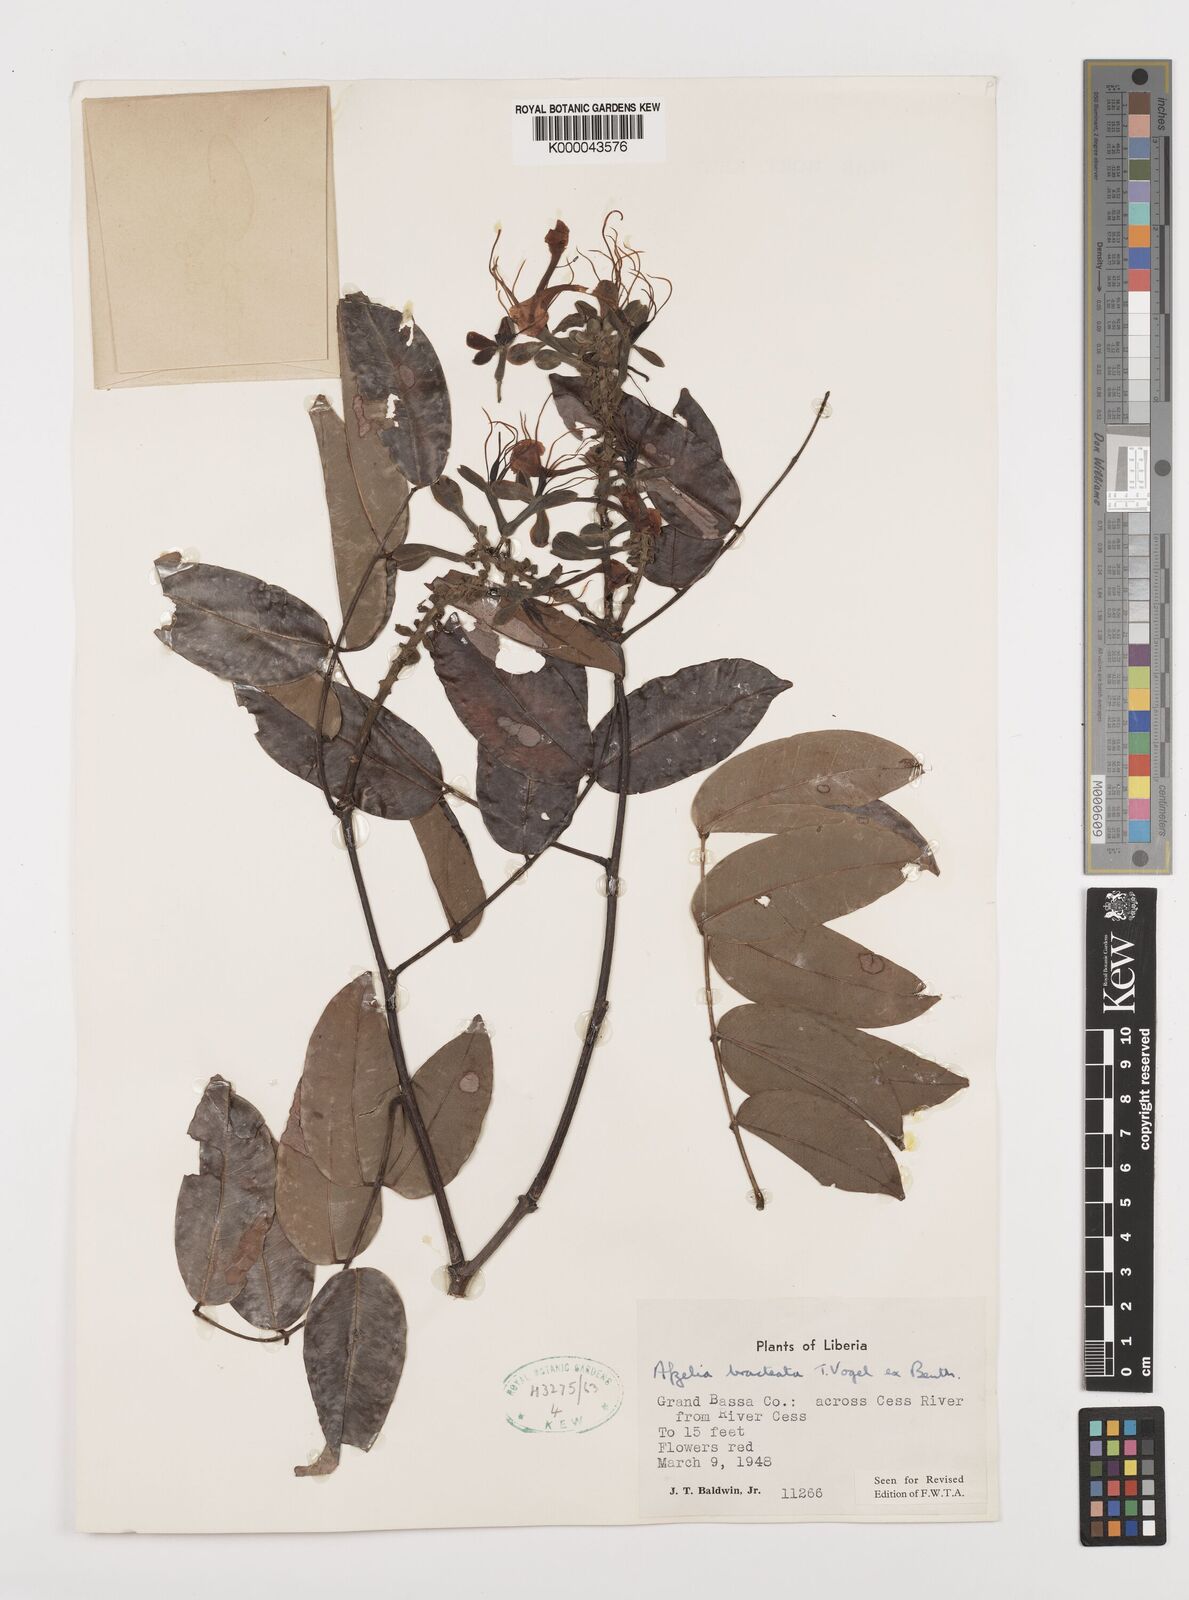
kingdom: Plantae
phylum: Tracheophyta
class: Magnoliopsida
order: Fabales
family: Fabaceae
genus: Afzelia
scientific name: Afzelia
